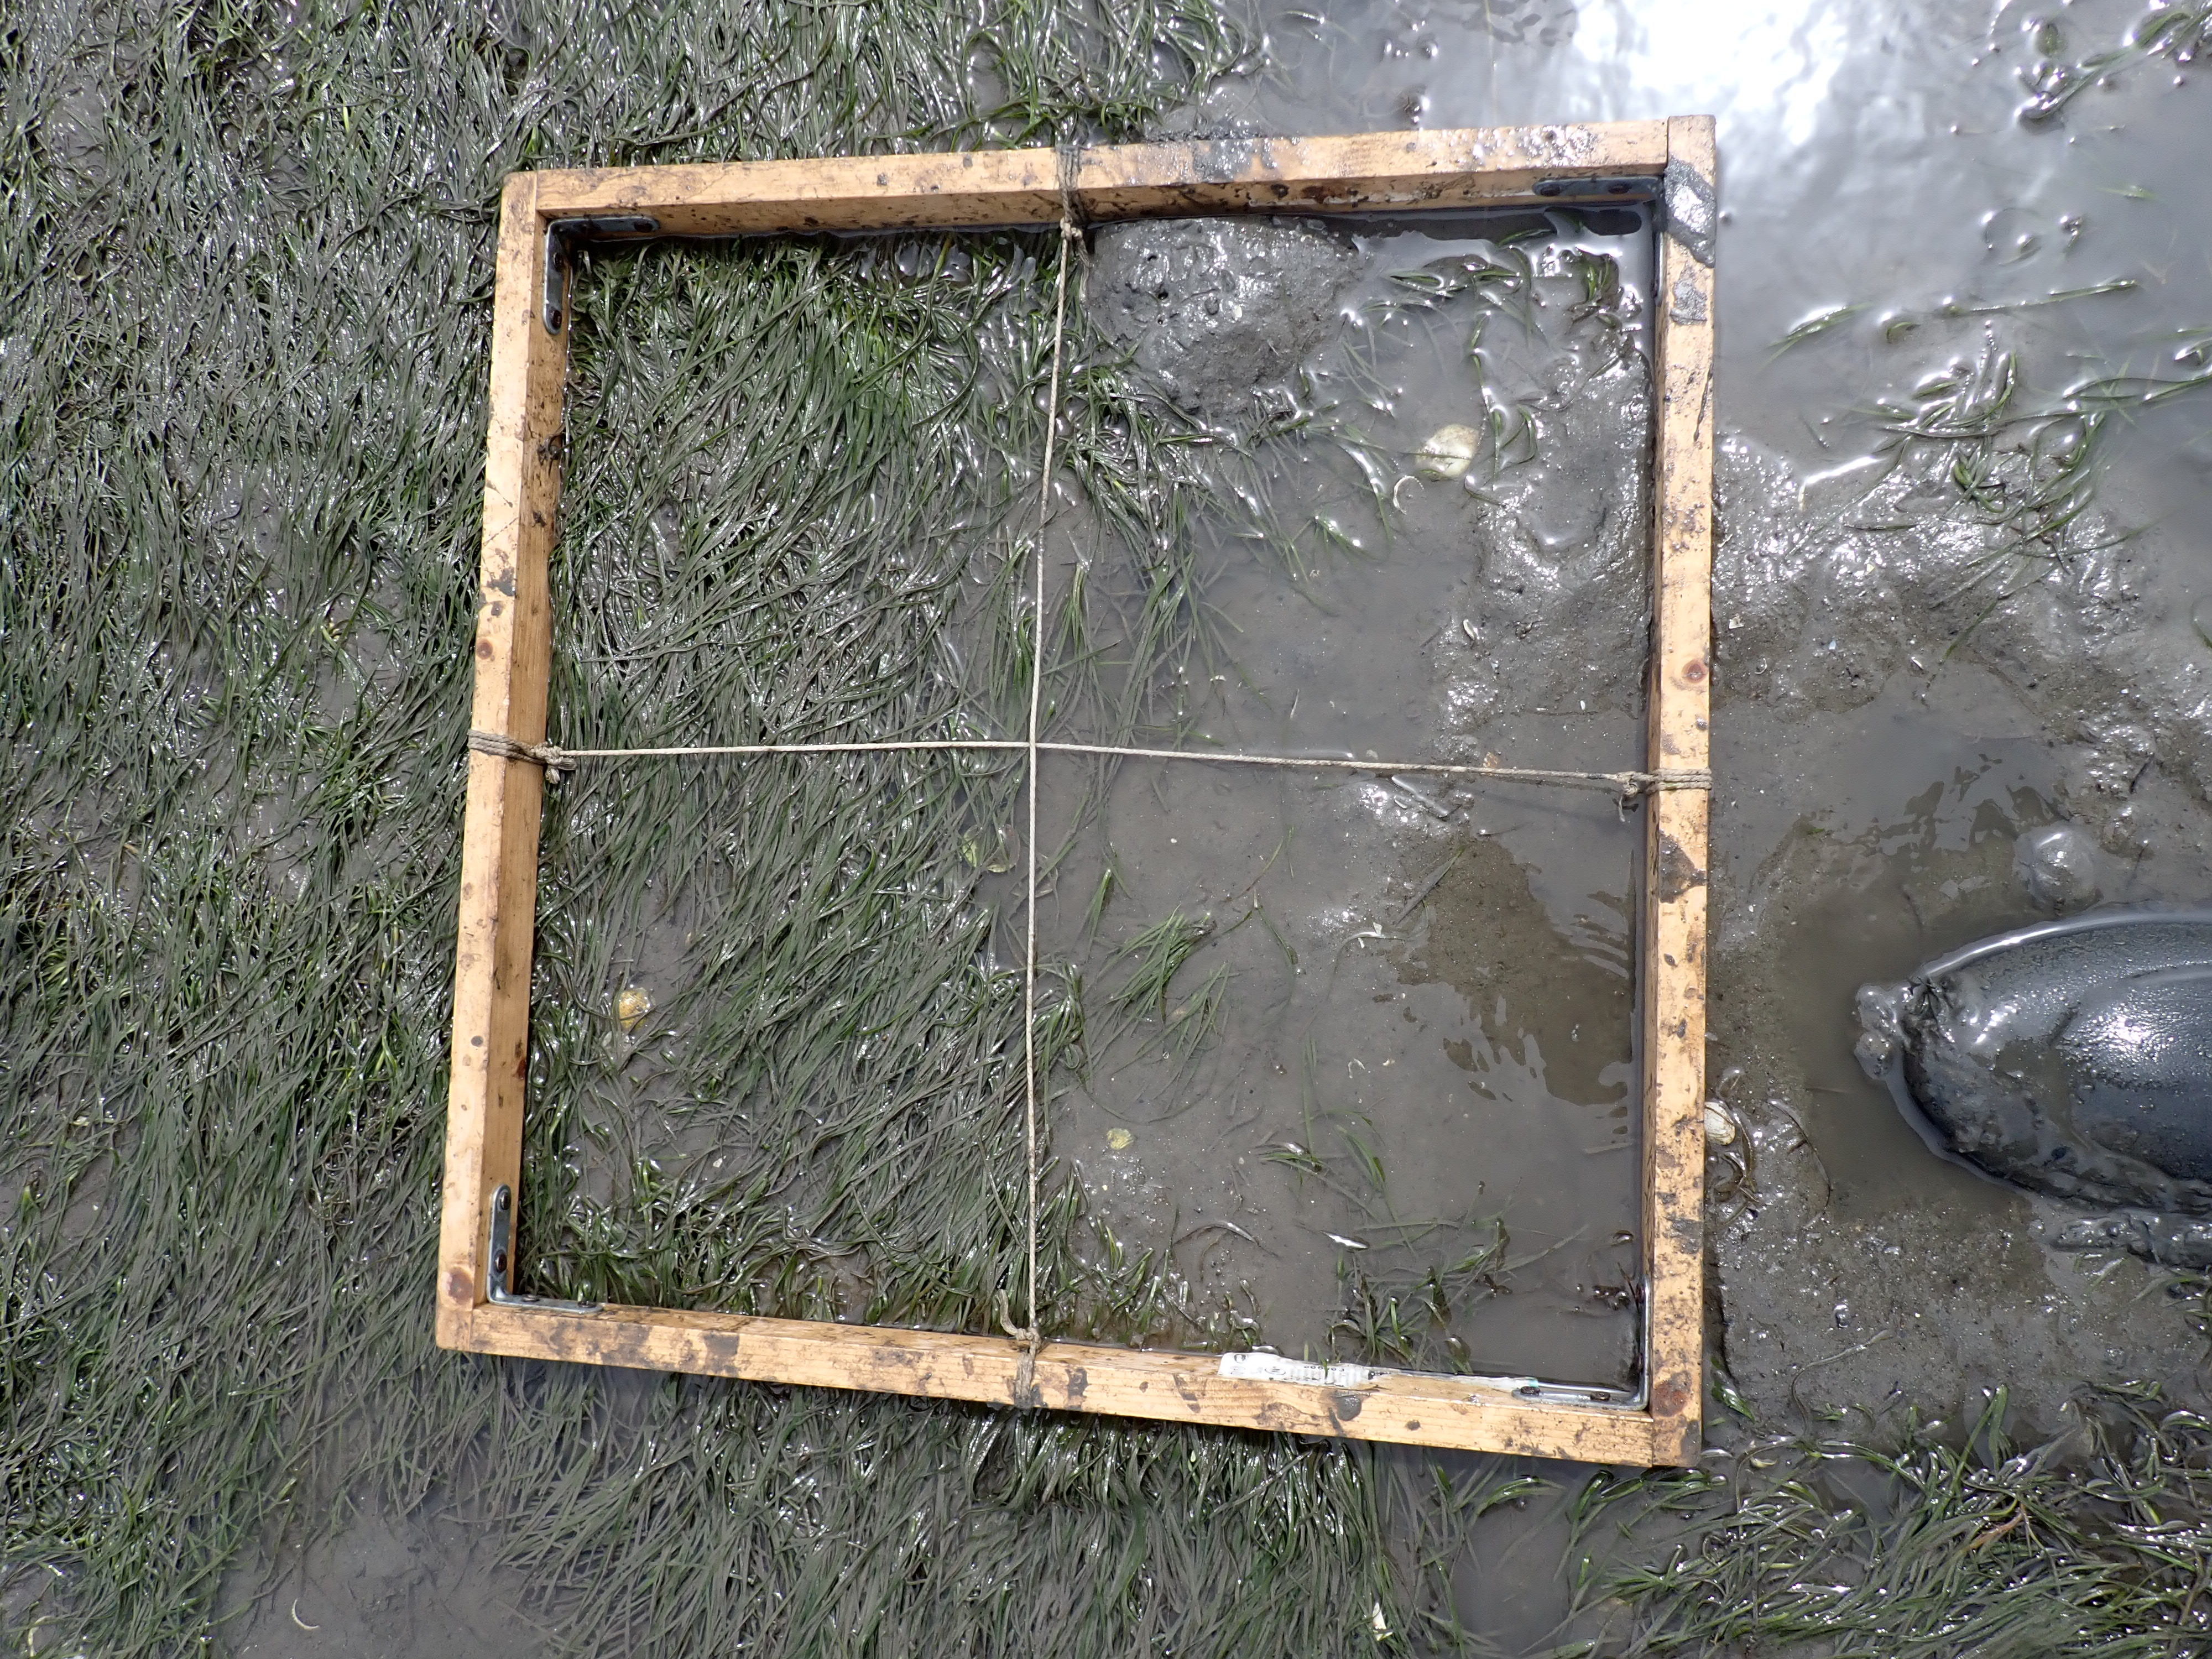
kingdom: Plantae
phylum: Tracheophyta
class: Liliopsida
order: Alismatales
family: Zosteraceae
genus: Zostera
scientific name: Zostera noltii
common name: Dwarf eelgrass
